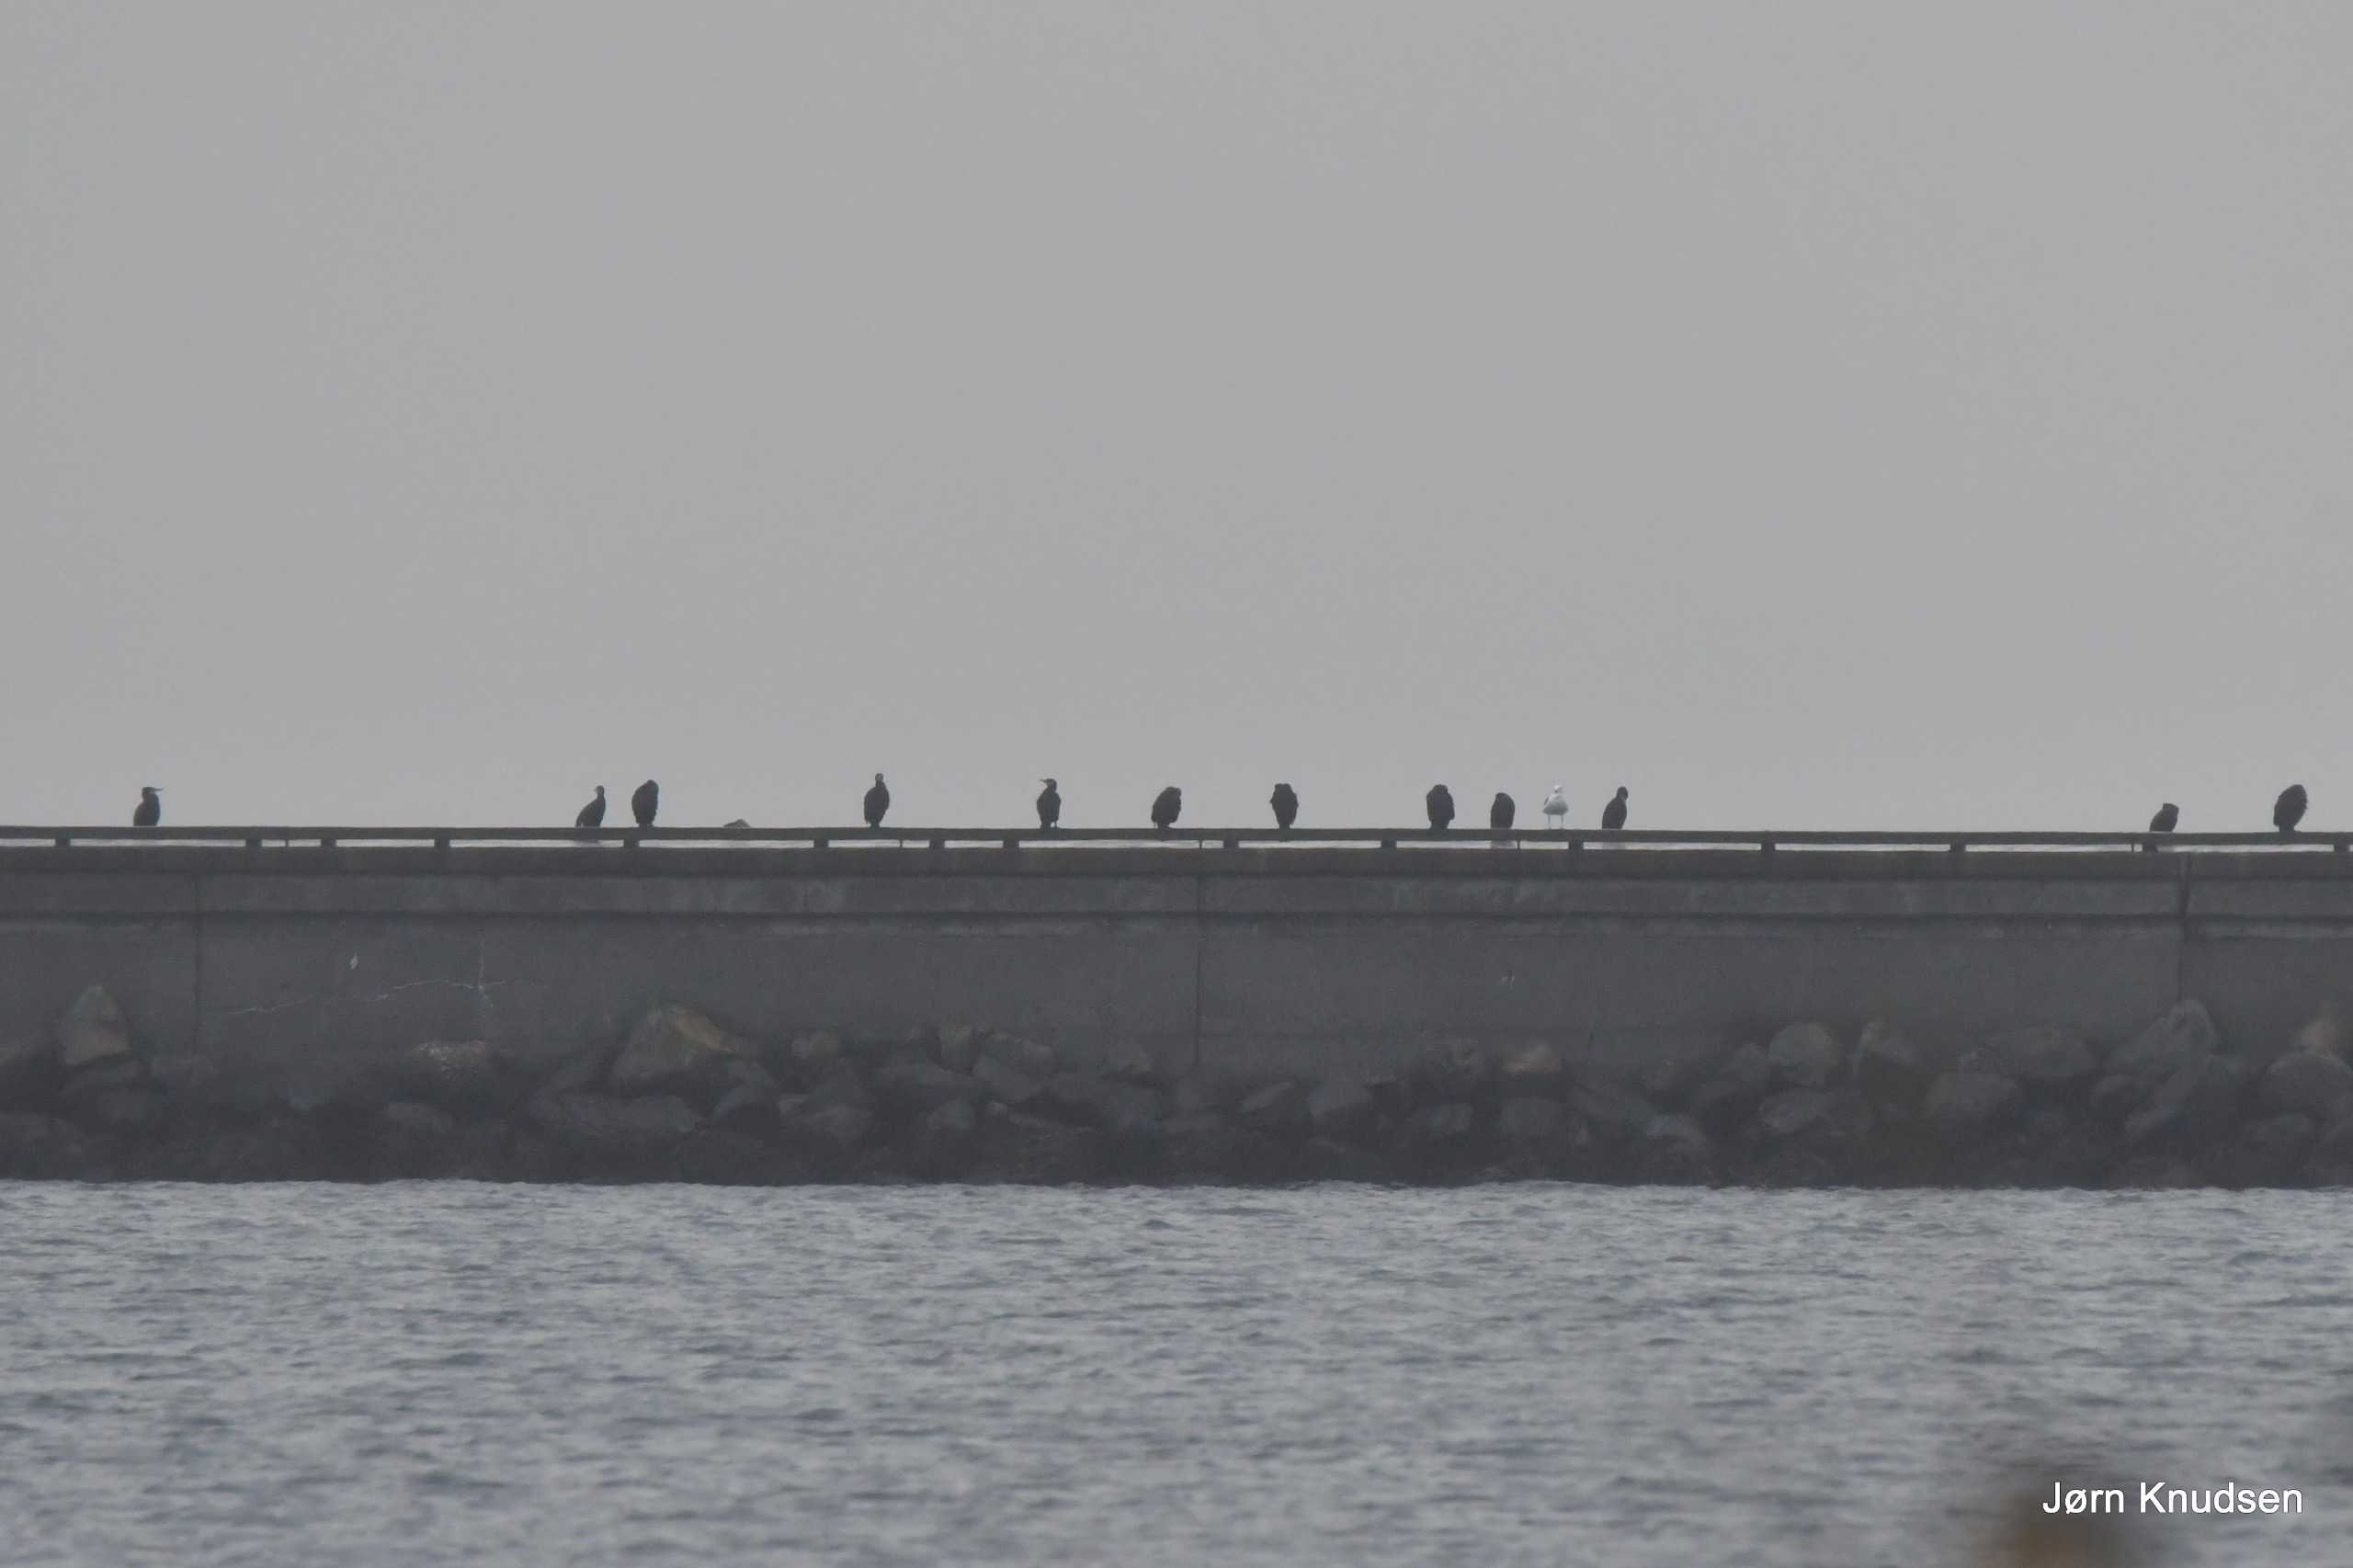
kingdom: Animalia
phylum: Chordata
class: Aves
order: Suliformes
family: Phalacrocoracidae
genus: Phalacrocorax
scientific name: Phalacrocorax carbo
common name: Skarv
